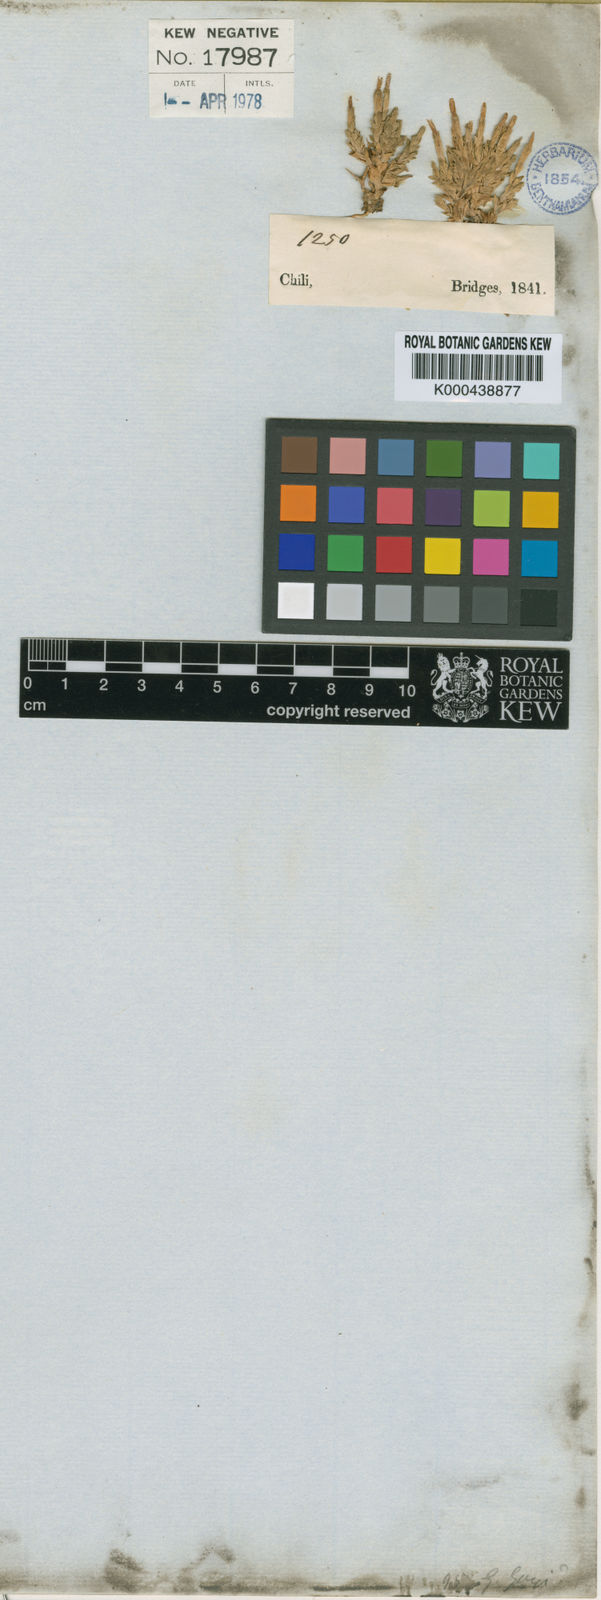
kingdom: Plantae
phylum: Tracheophyta
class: Magnoliopsida
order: Gentianales
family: Gentianaceae
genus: Gentiana
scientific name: Gentiana prostrata
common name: Moss gentian
